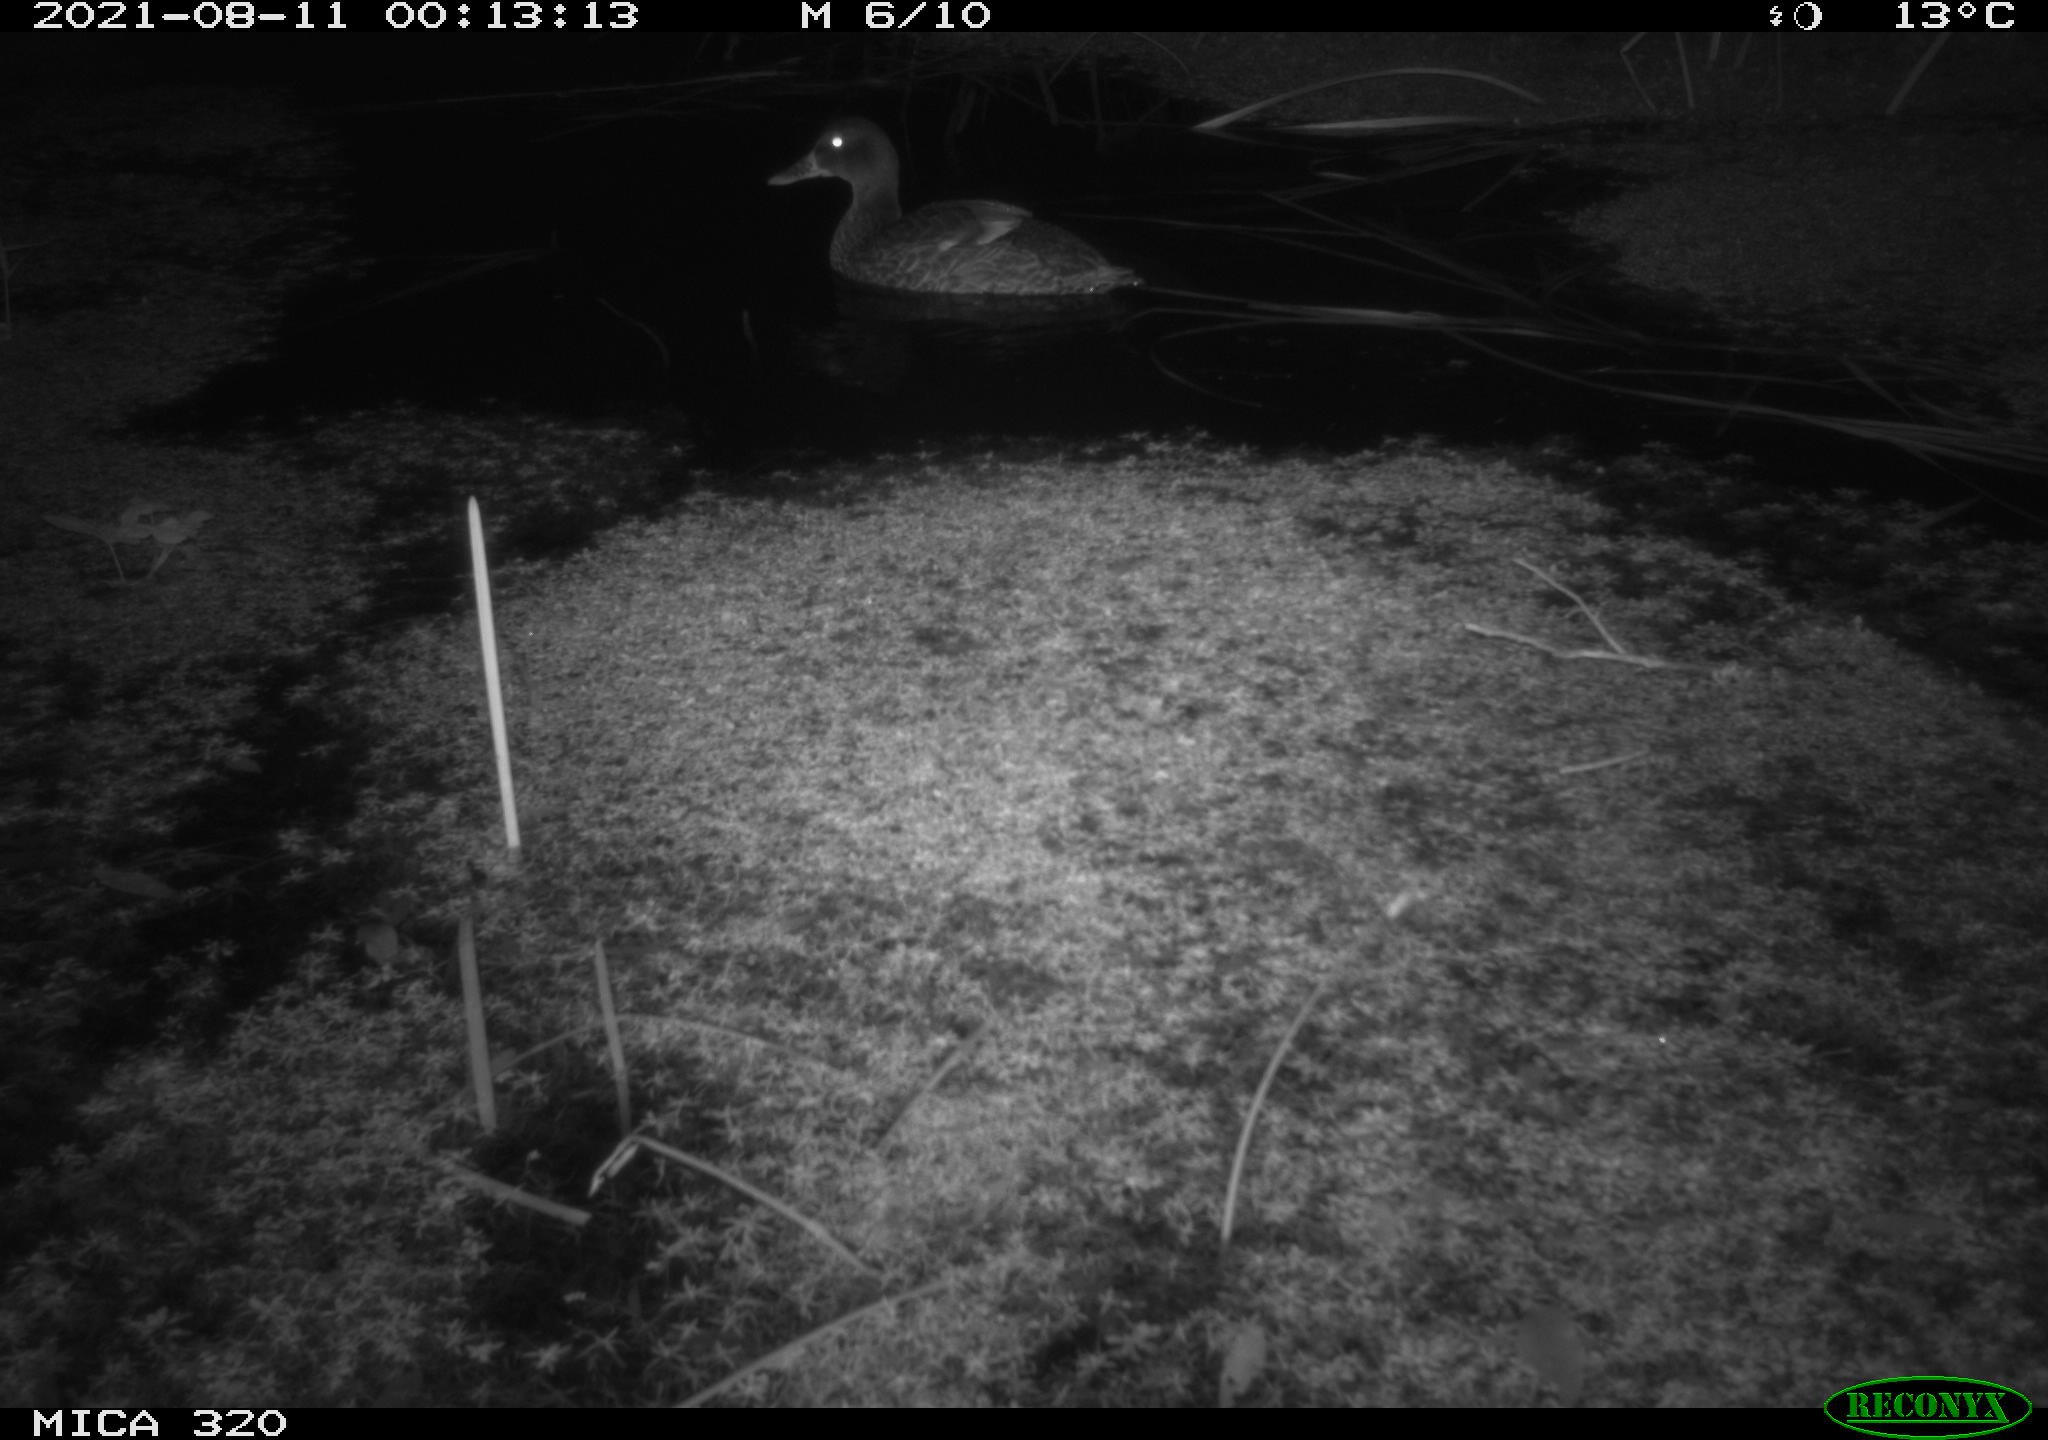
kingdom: Animalia
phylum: Chordata
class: Aves
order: Anseriformes
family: Anatidae
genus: Anas
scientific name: Anas platyrhynchos
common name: Mallard
